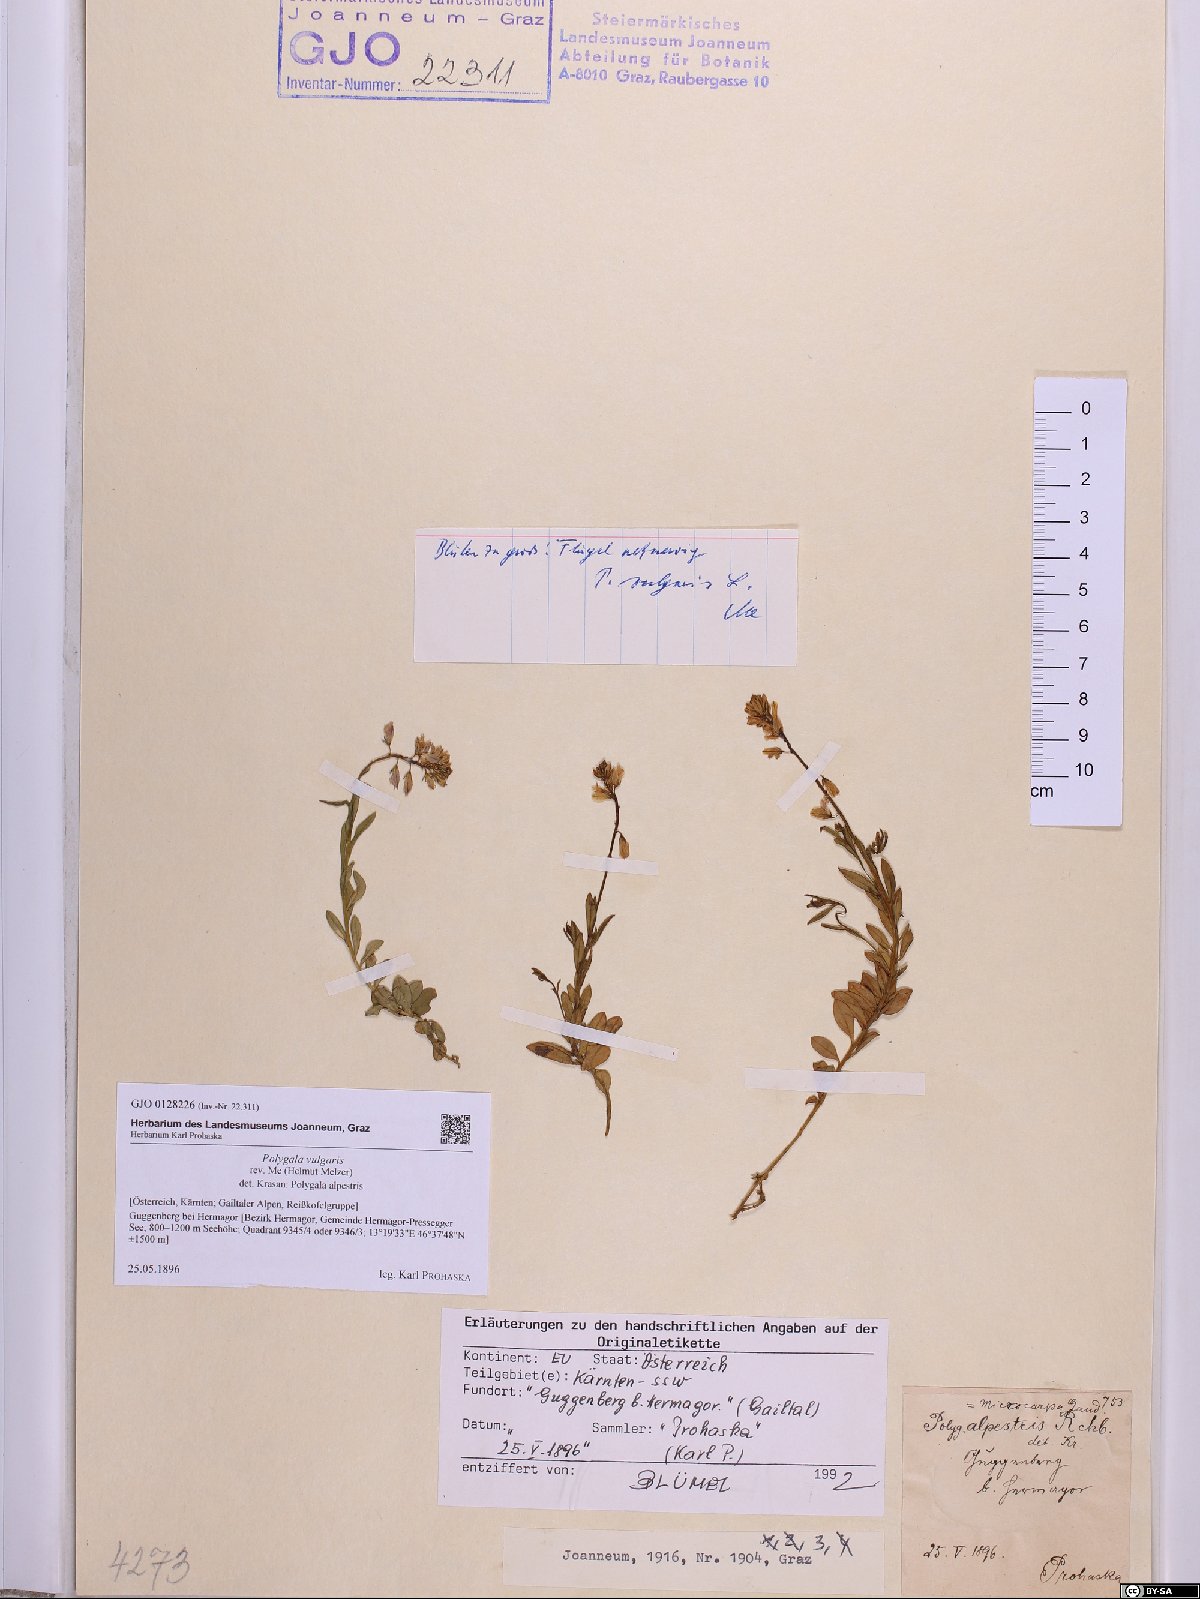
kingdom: Plantae
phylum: Tracheophyta
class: Magnoliopsida
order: Fabales
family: Polygalaceae
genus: Polygala
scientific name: Polygala vulgaris
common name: Common milkwort
